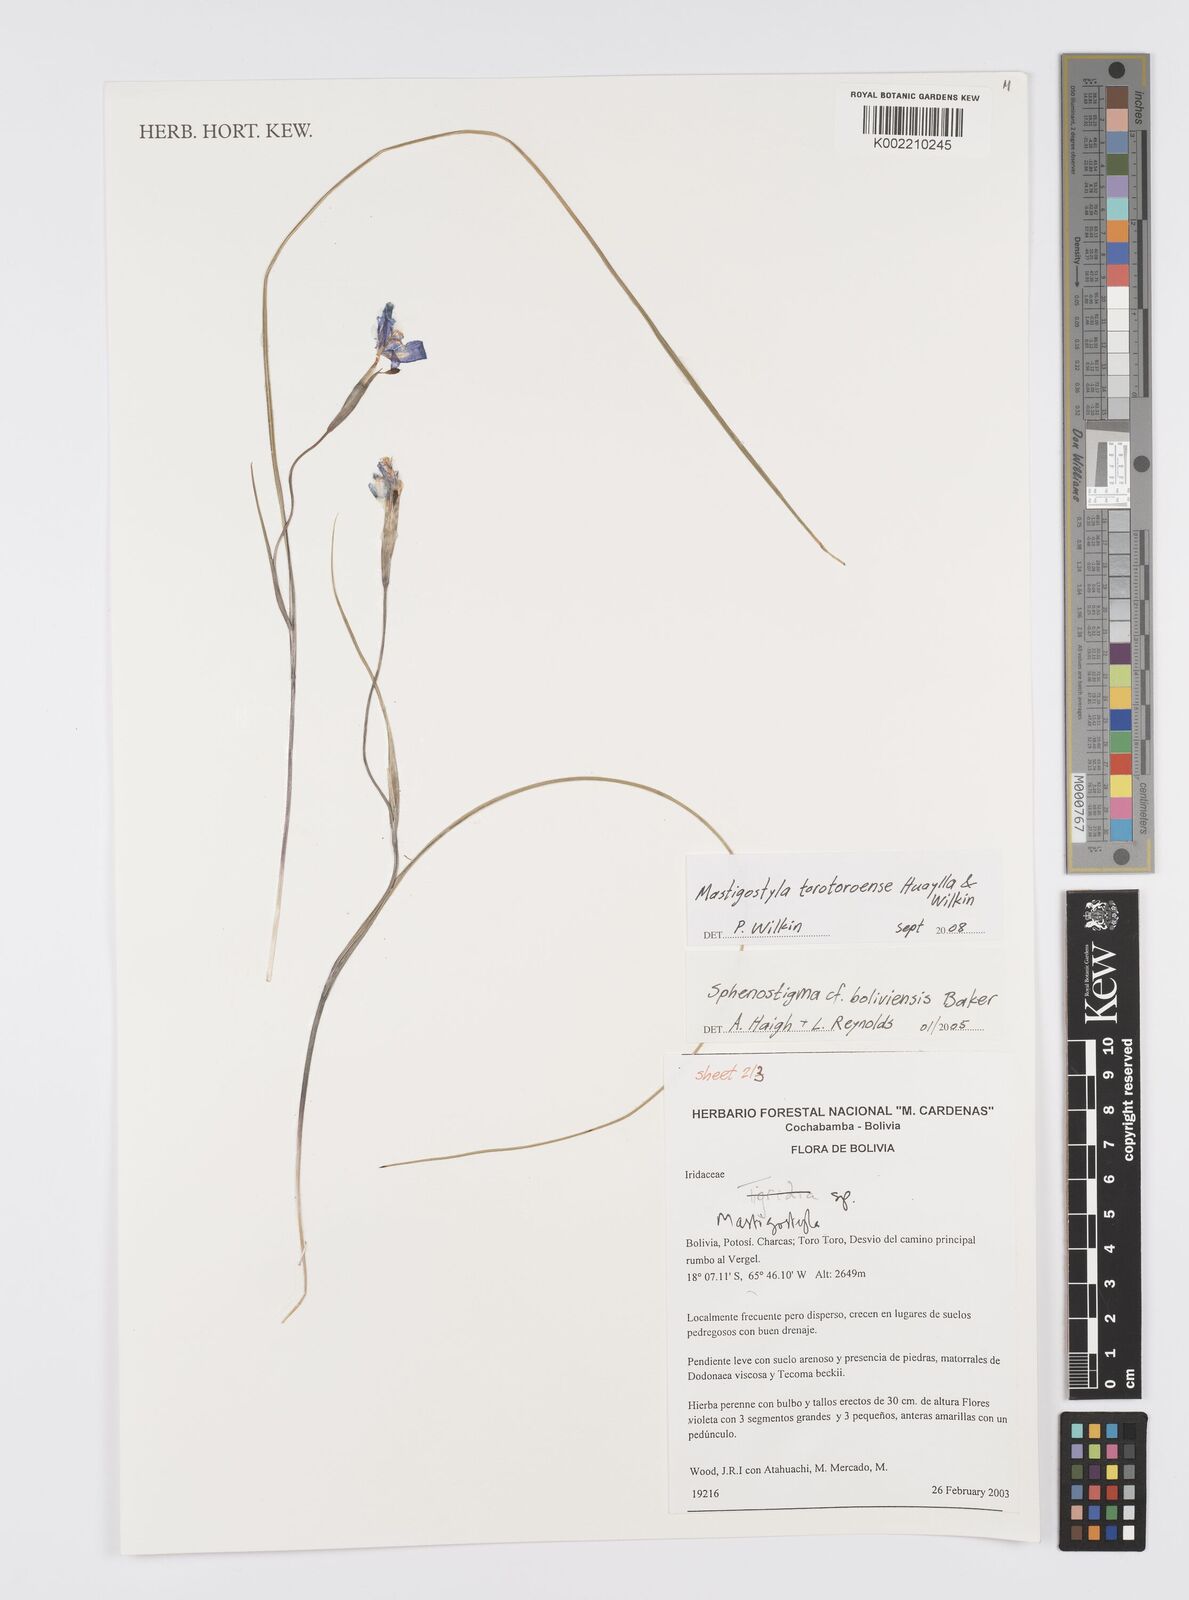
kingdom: Plantae
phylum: Tracheophyta
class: Liliopsida
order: Asparagales
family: Iridaceae
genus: Mastigostyla
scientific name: Mastigostyla torotoroensis
